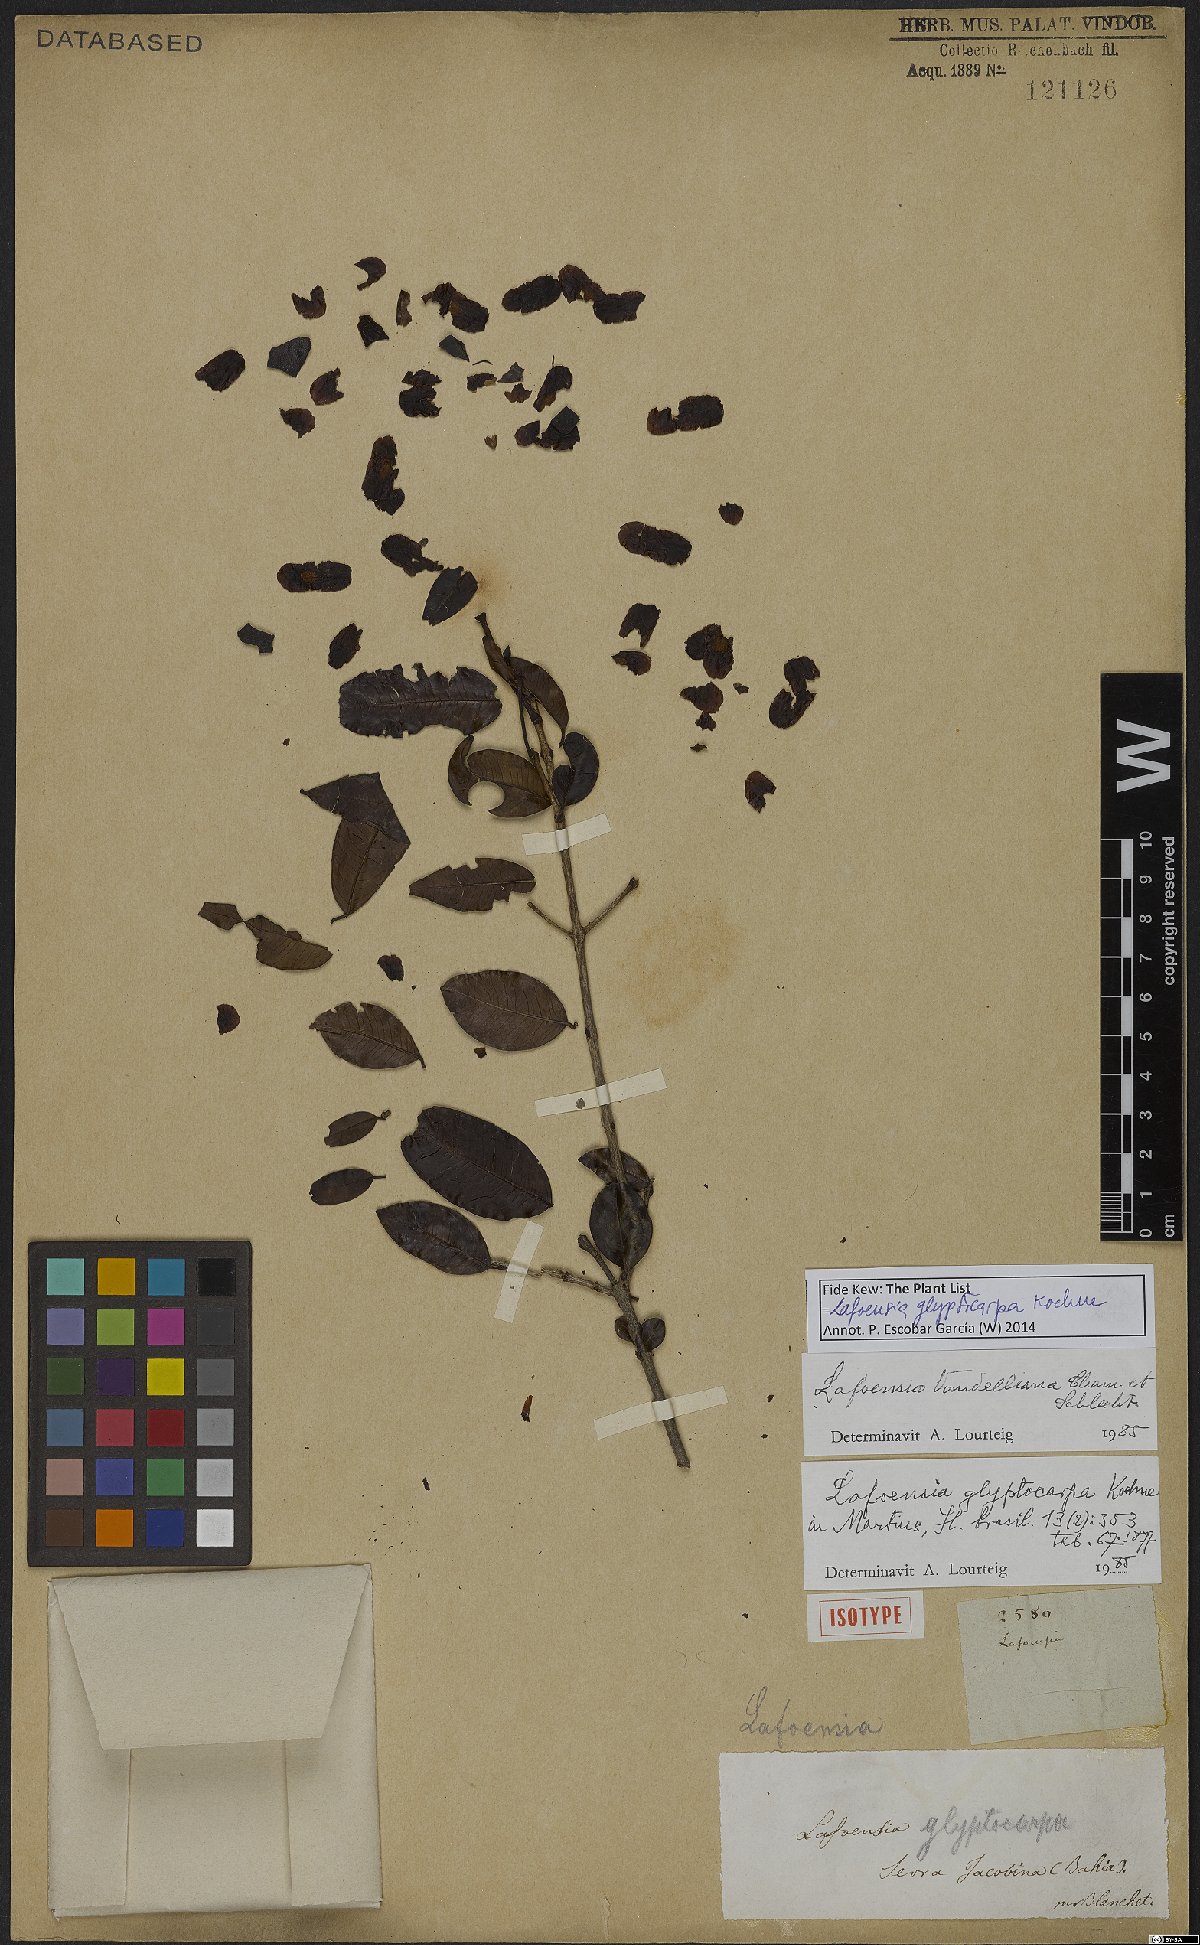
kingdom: Plantae
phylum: Tracheophyta
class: Magnoliopsida
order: Myrtales
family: Lythraceae
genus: Lafoensia
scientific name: Lafoensia glyptocarpa
